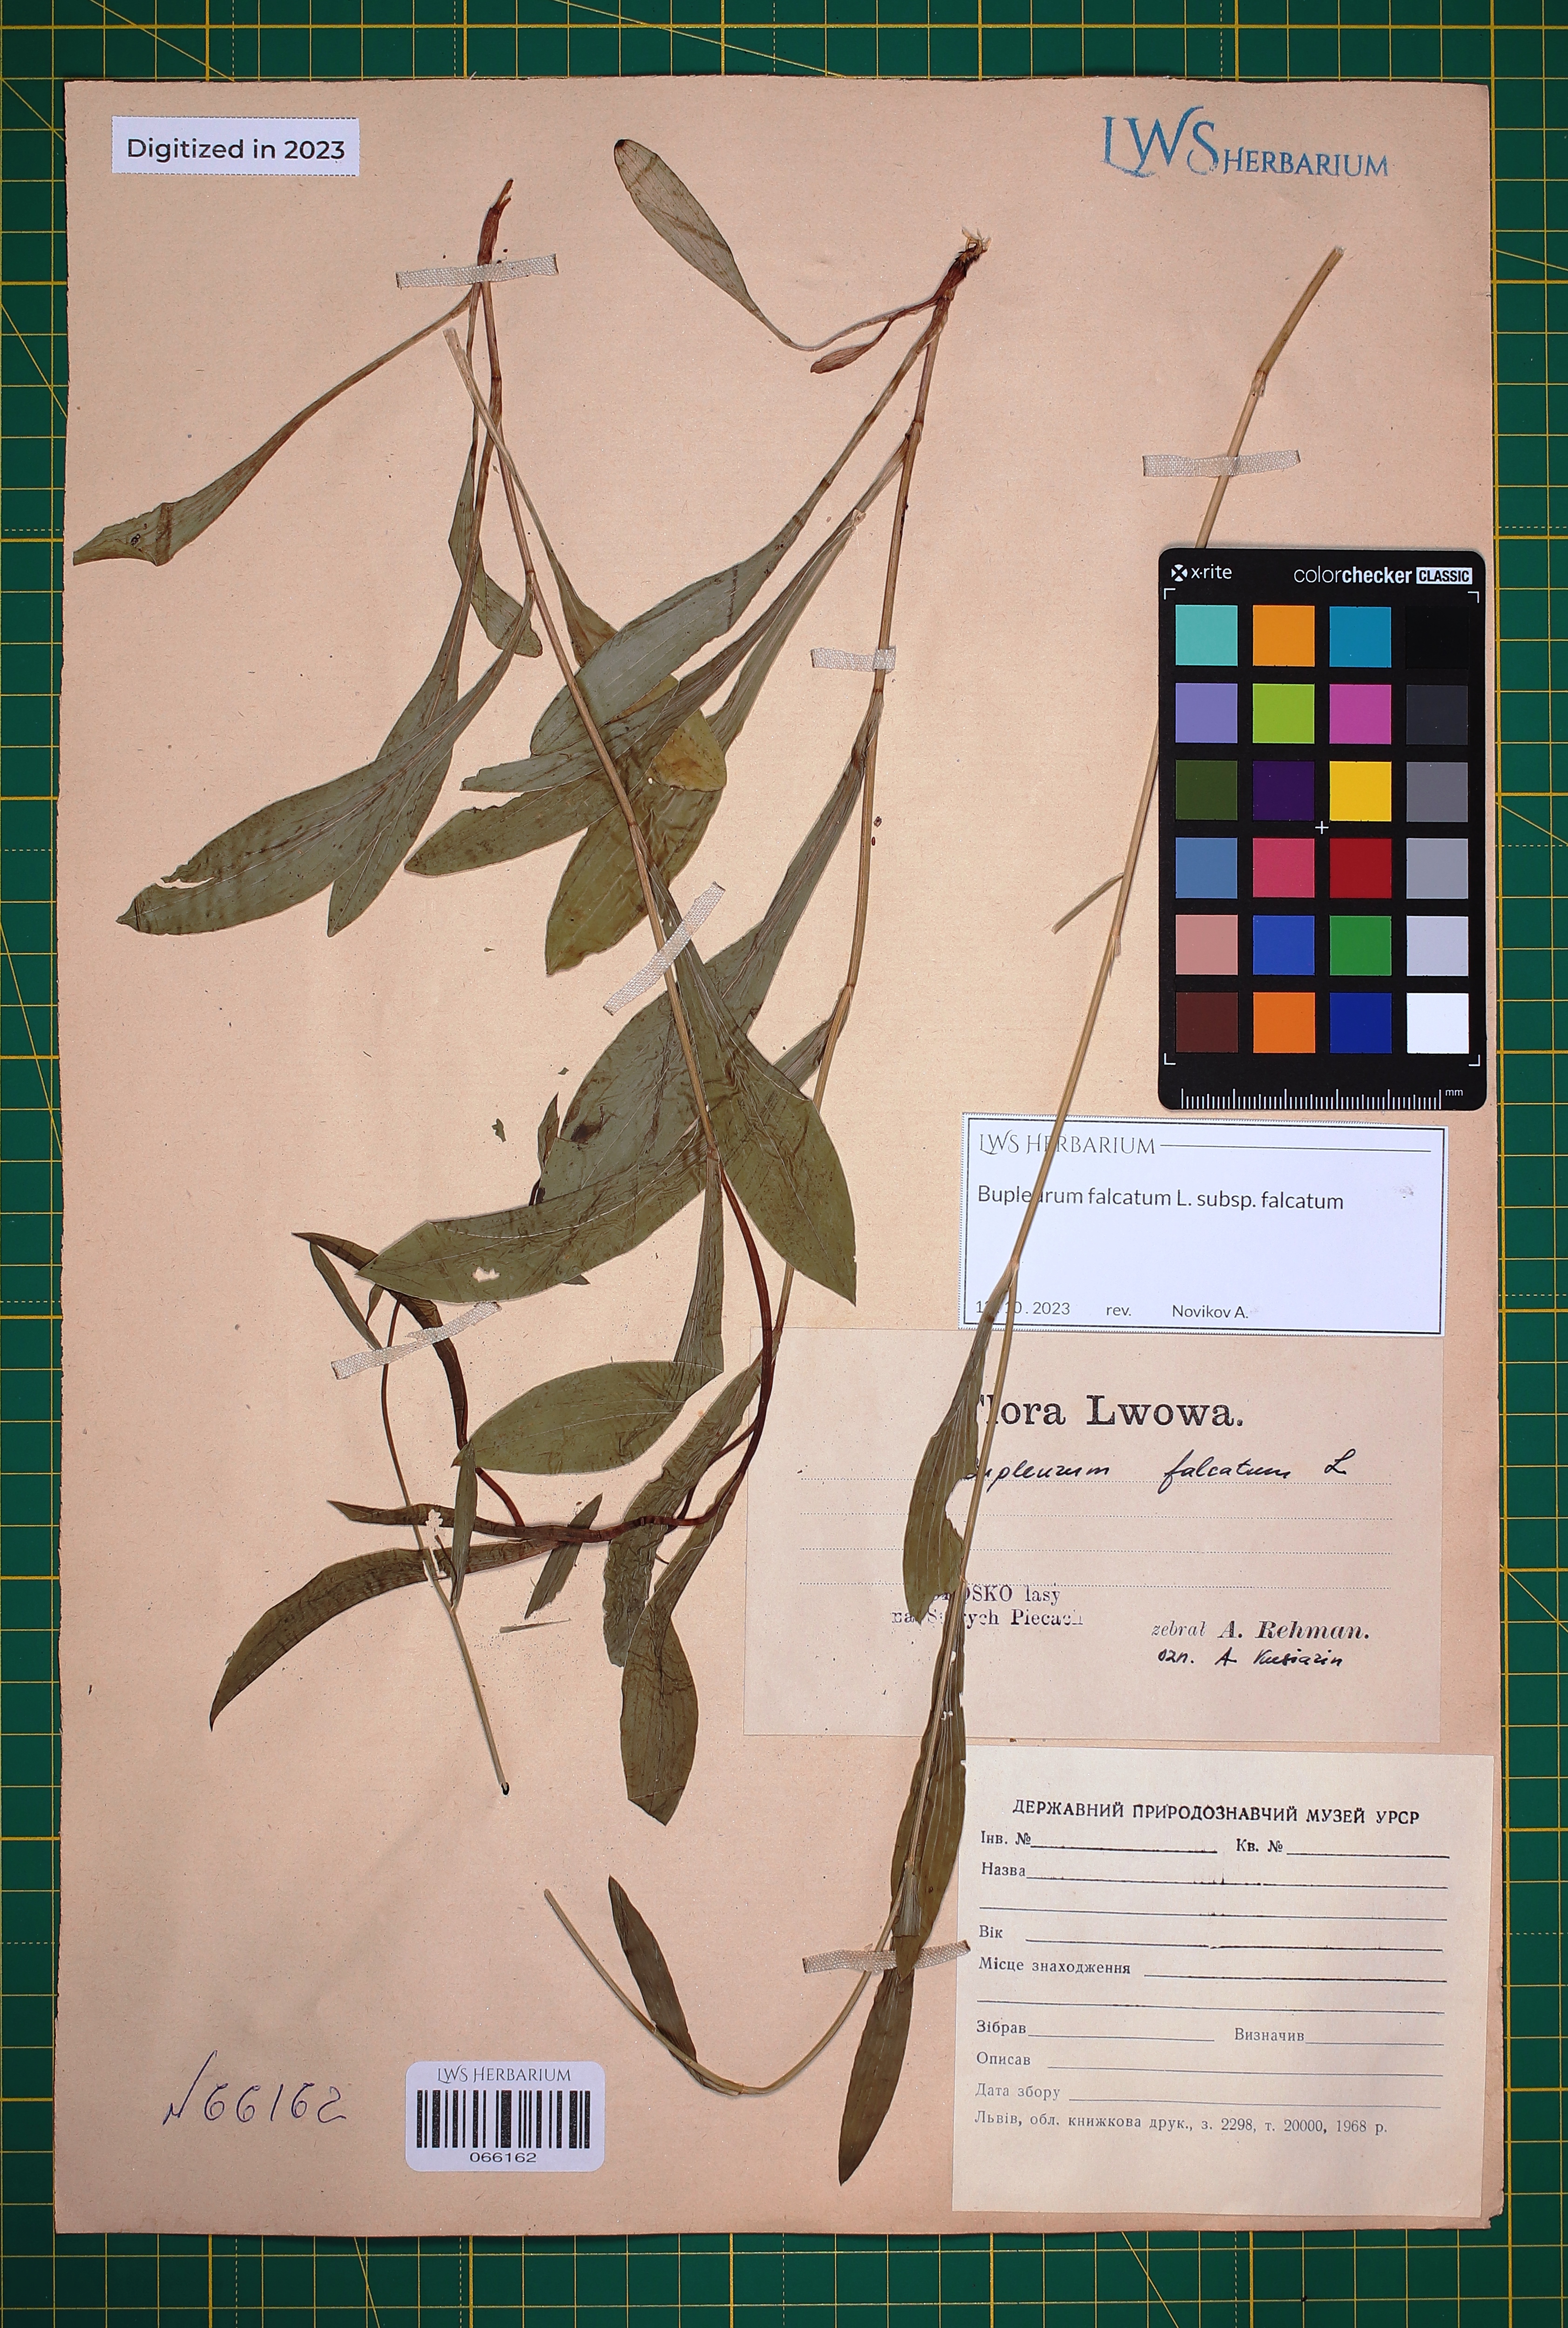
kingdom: Plantae
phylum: Tracheophyta
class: Magnoliopsida
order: Apiales
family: Apiaceae
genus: Bupleurum
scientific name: Bupleurum falcatum
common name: Sickle-leaved hare's-ear
